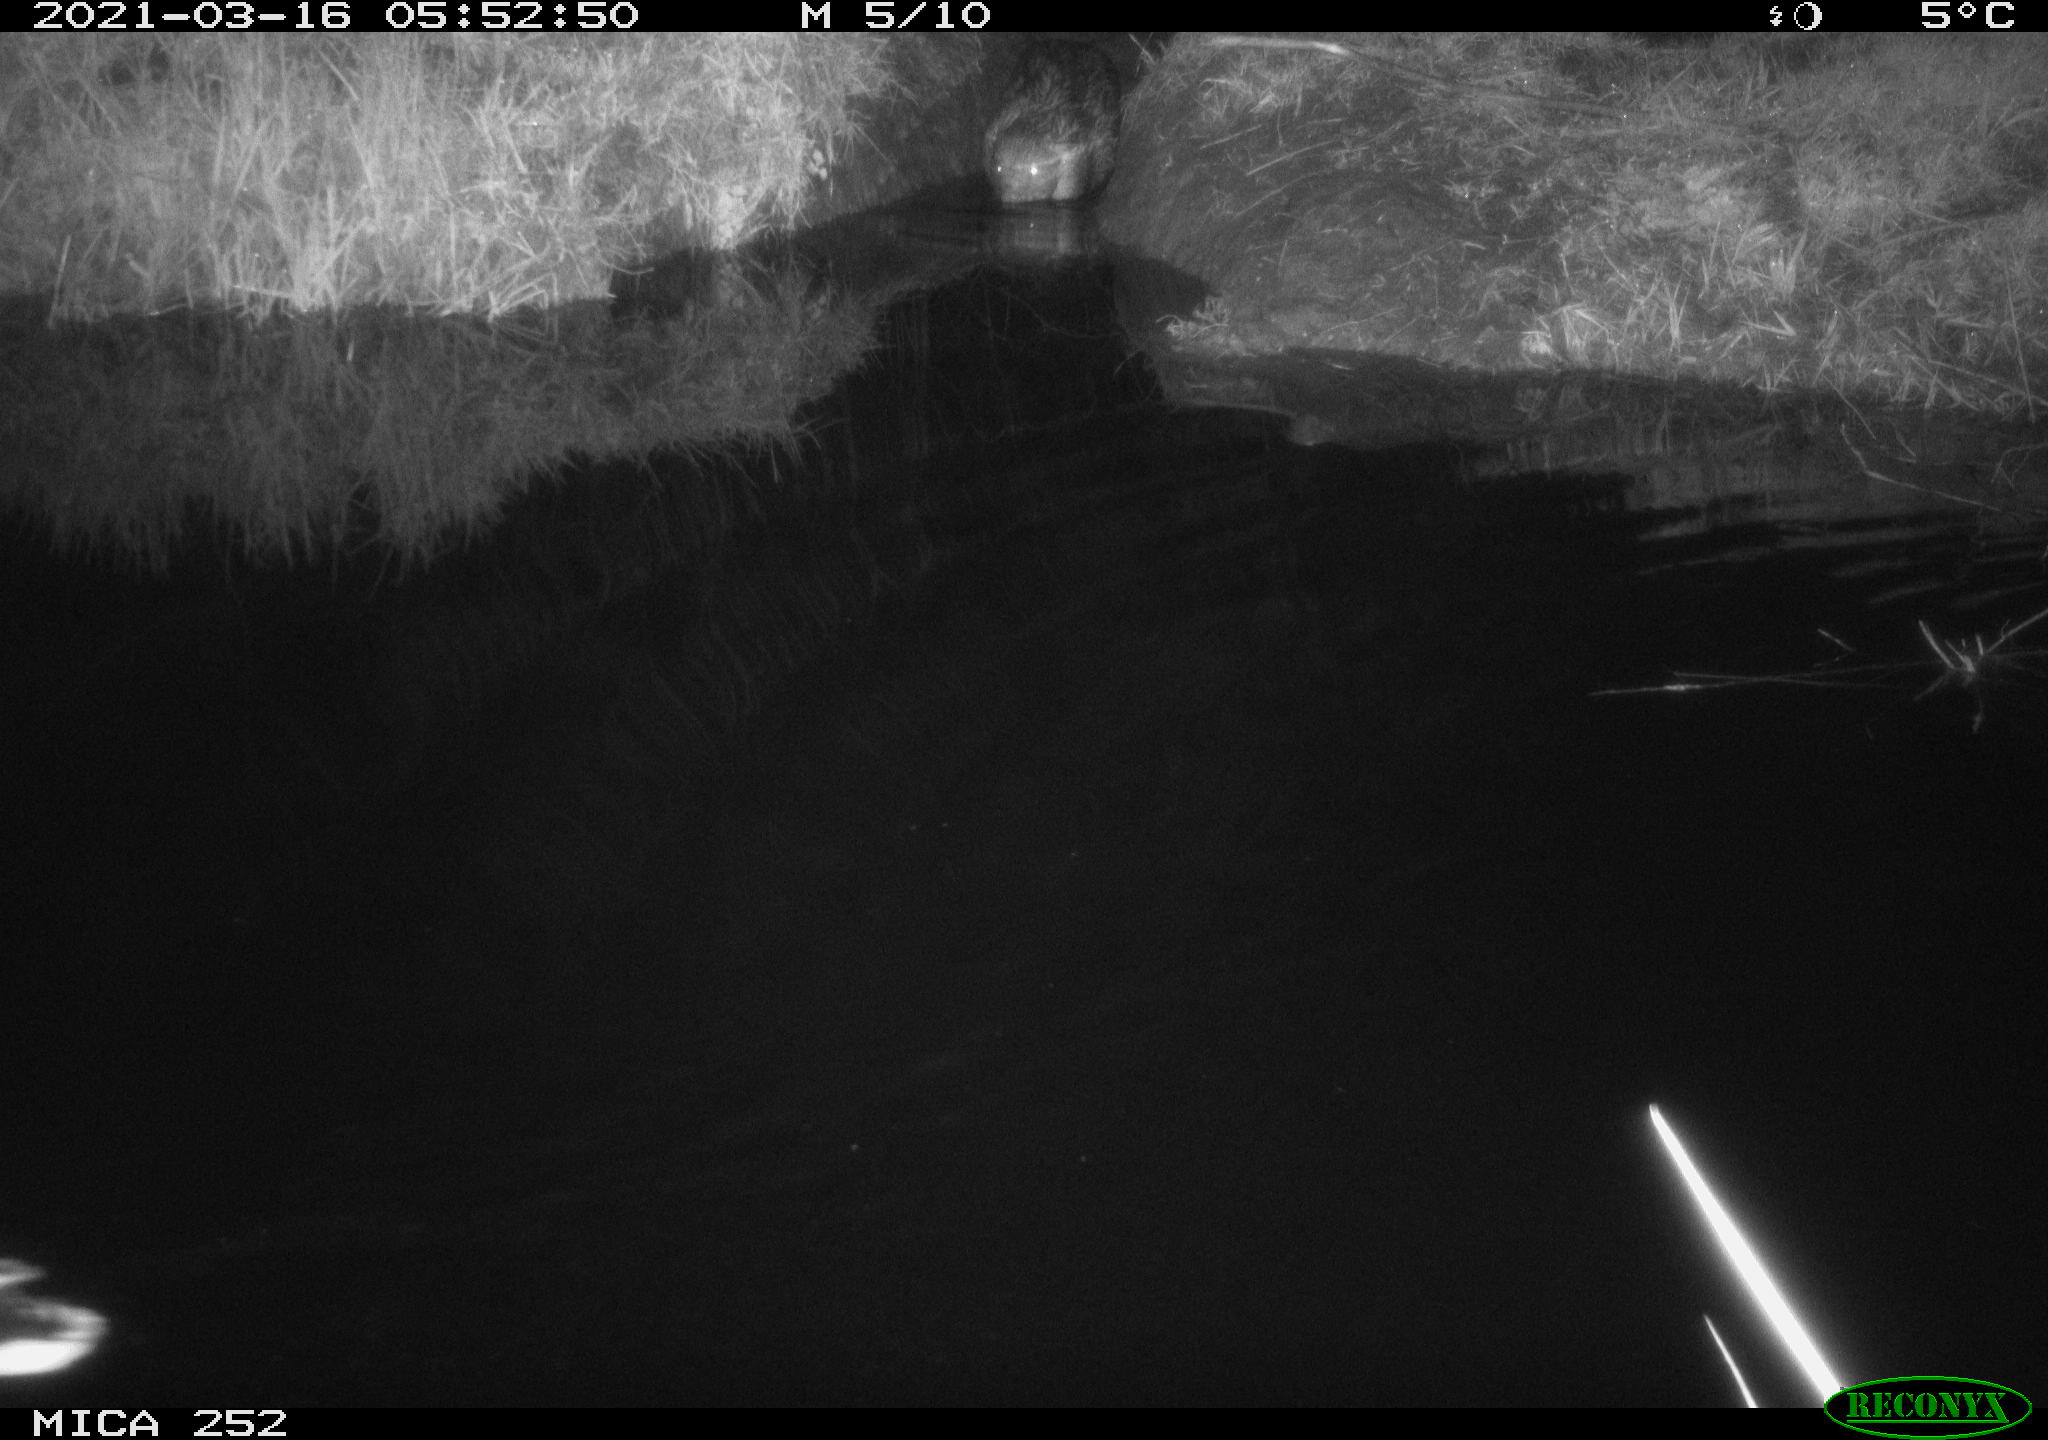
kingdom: Animalia
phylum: Chordata
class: Aves
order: Anseriformes
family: Anatidae
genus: Anas
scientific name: Anas platyrhynchos
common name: Mallard
